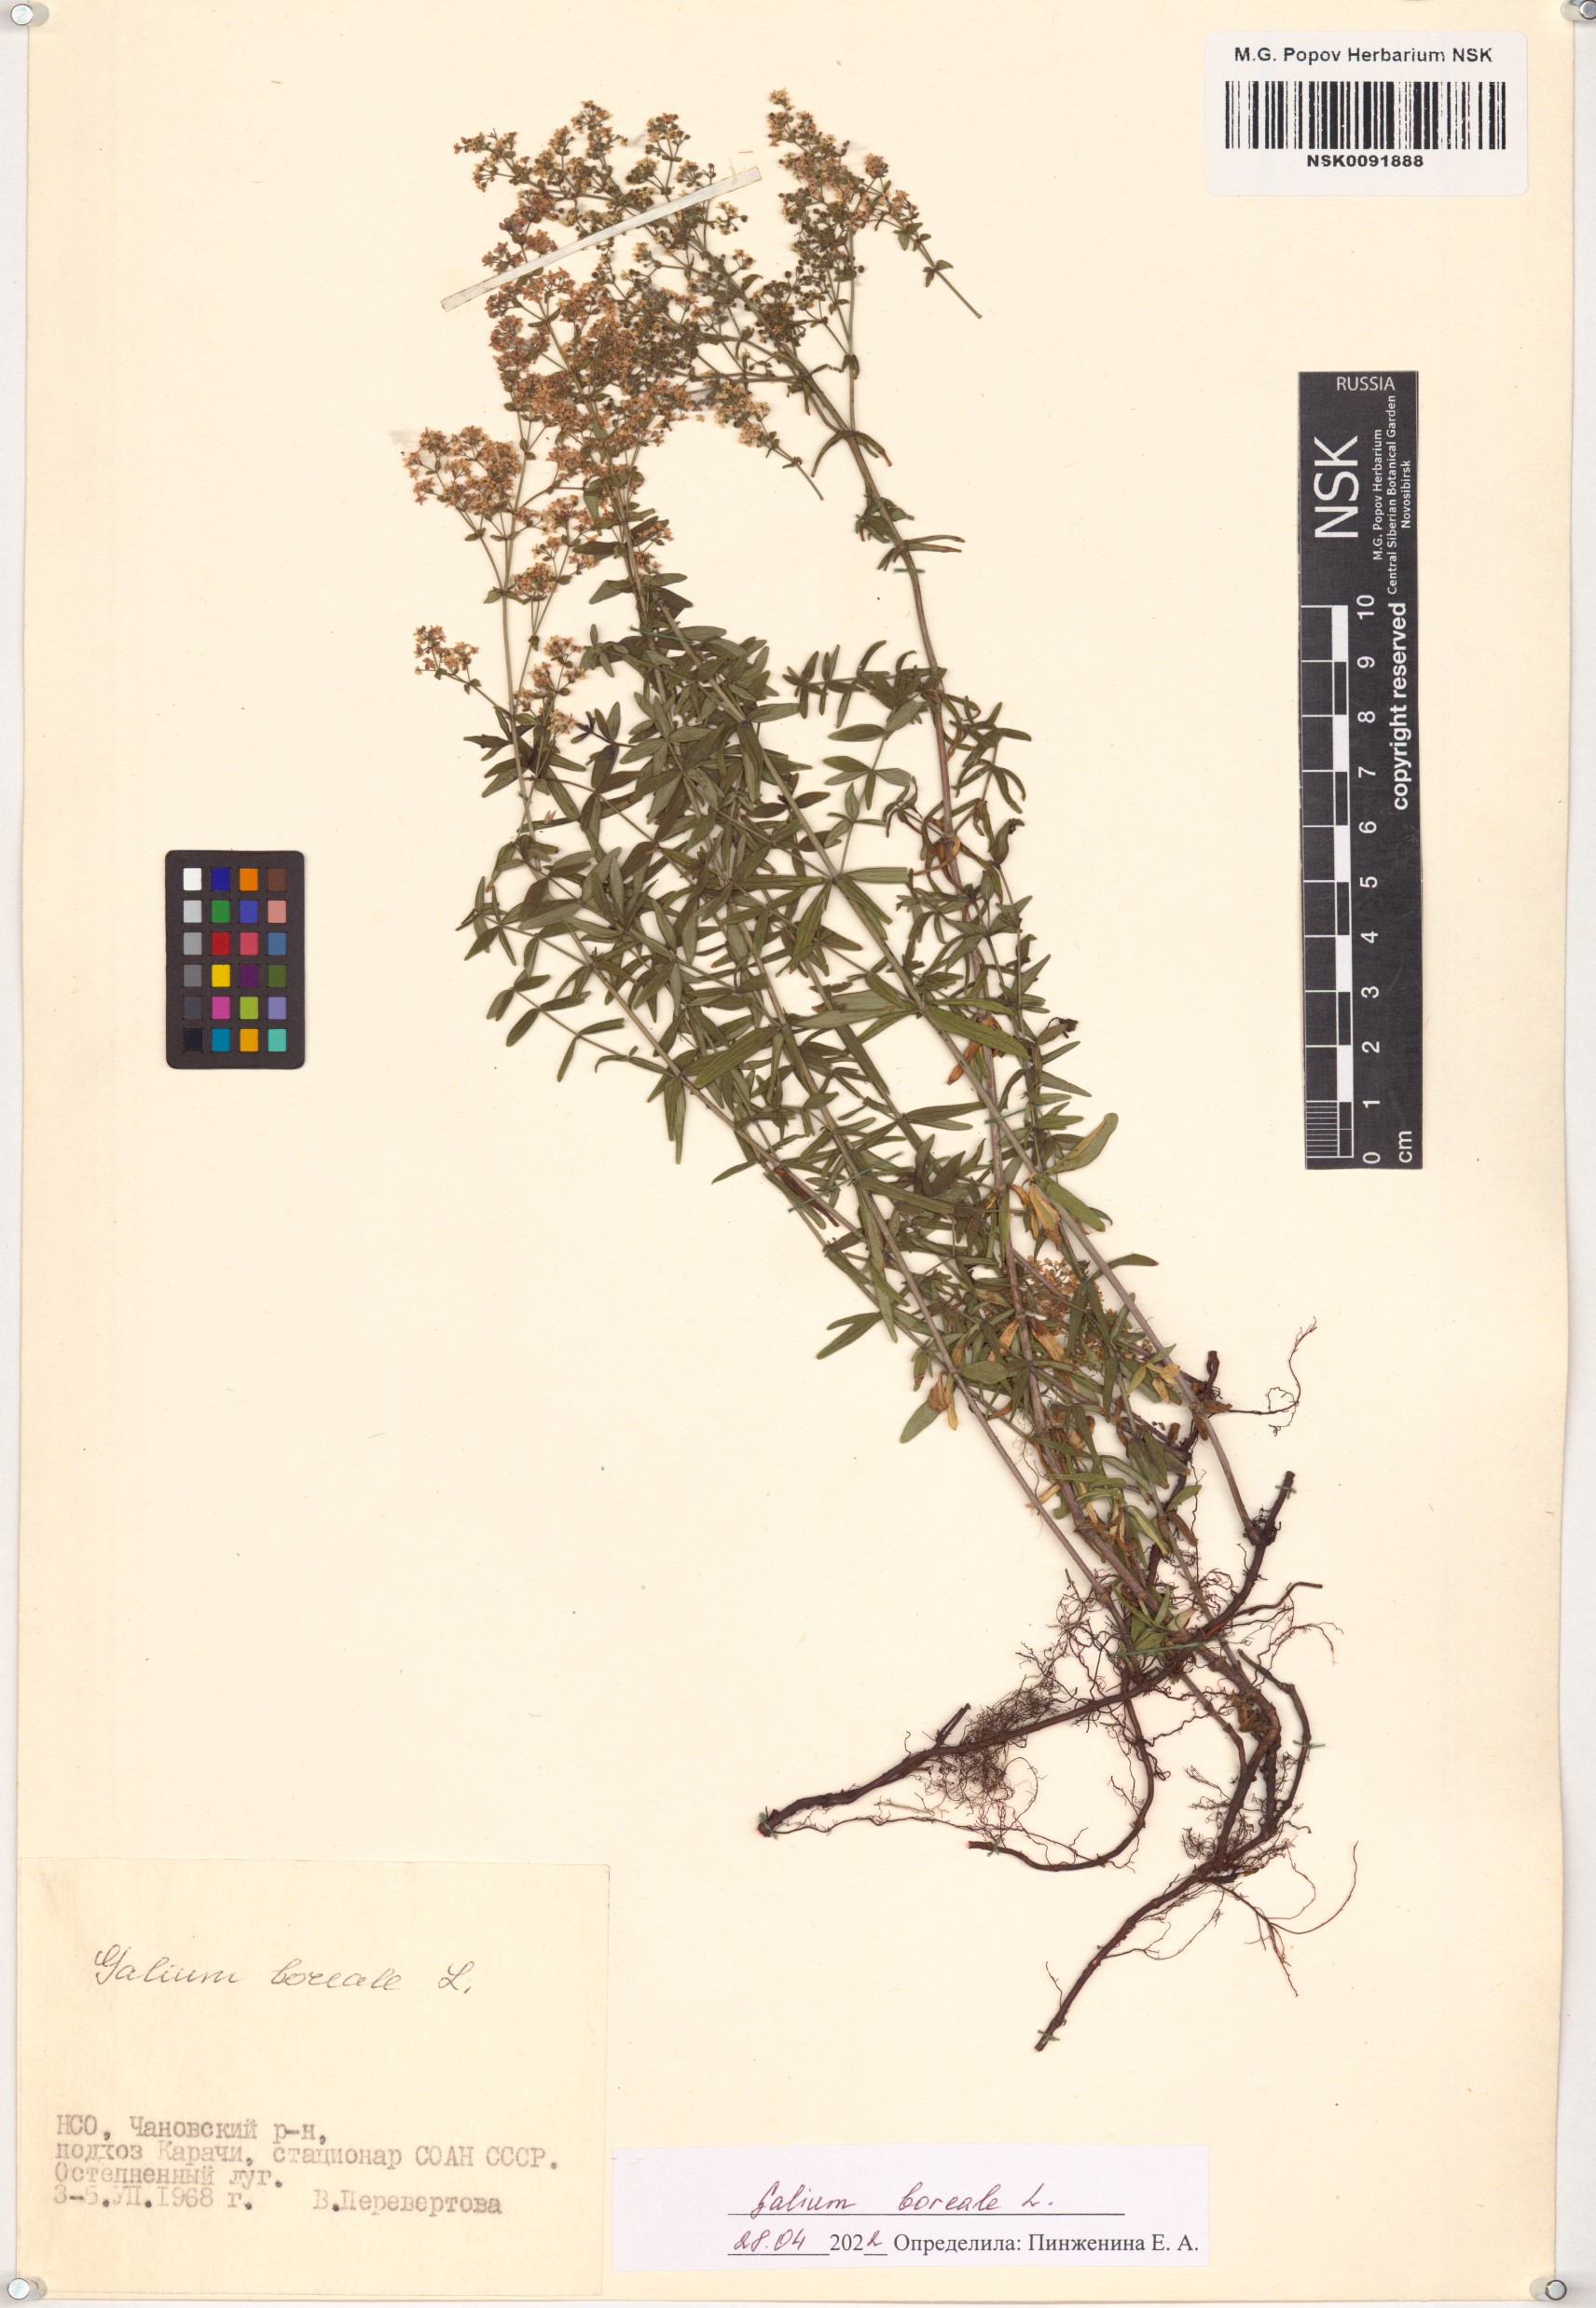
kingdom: Plantae
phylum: Tracheophyta
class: Magnoliopsida
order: Gentianales
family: Rubiaceae
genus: Galium
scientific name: Galium boreale
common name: Northern bedstraw
